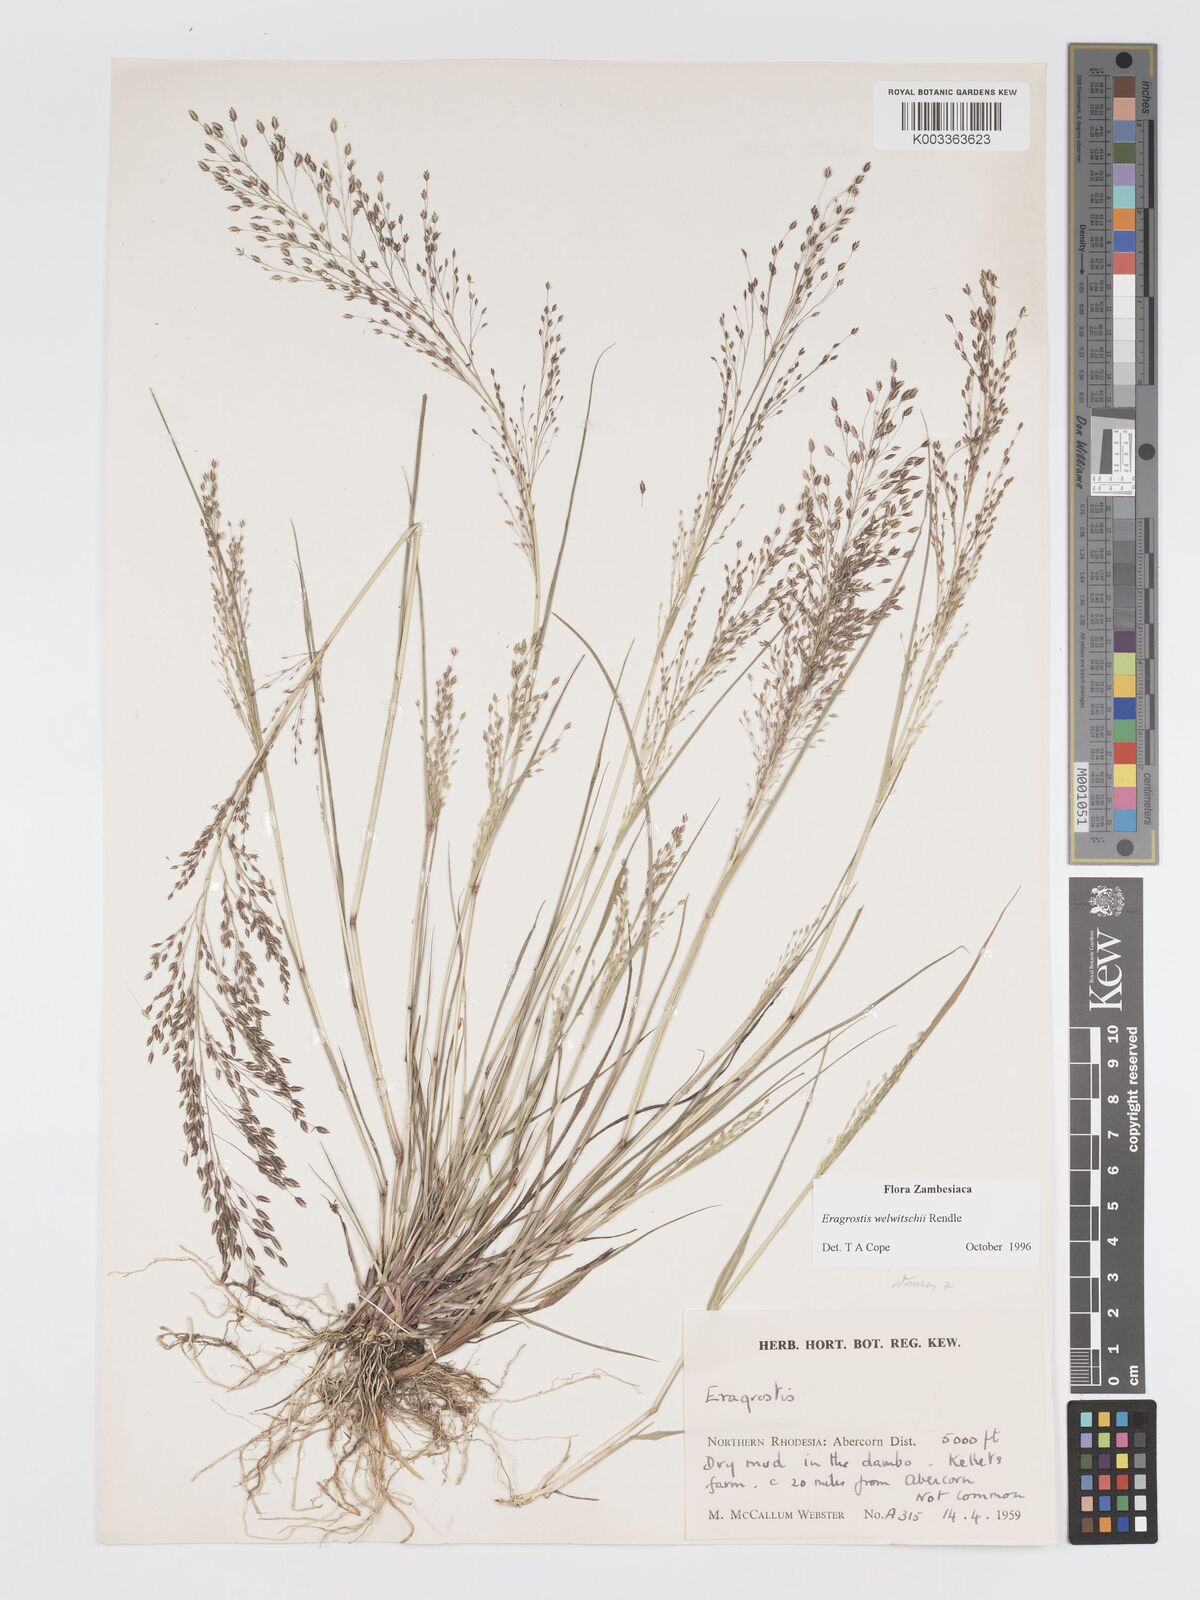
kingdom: Plantae
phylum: Tracheophyta
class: Liliopsida
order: Poales
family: Poaceae
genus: Eragrostis
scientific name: Eragrostis welwitschii
